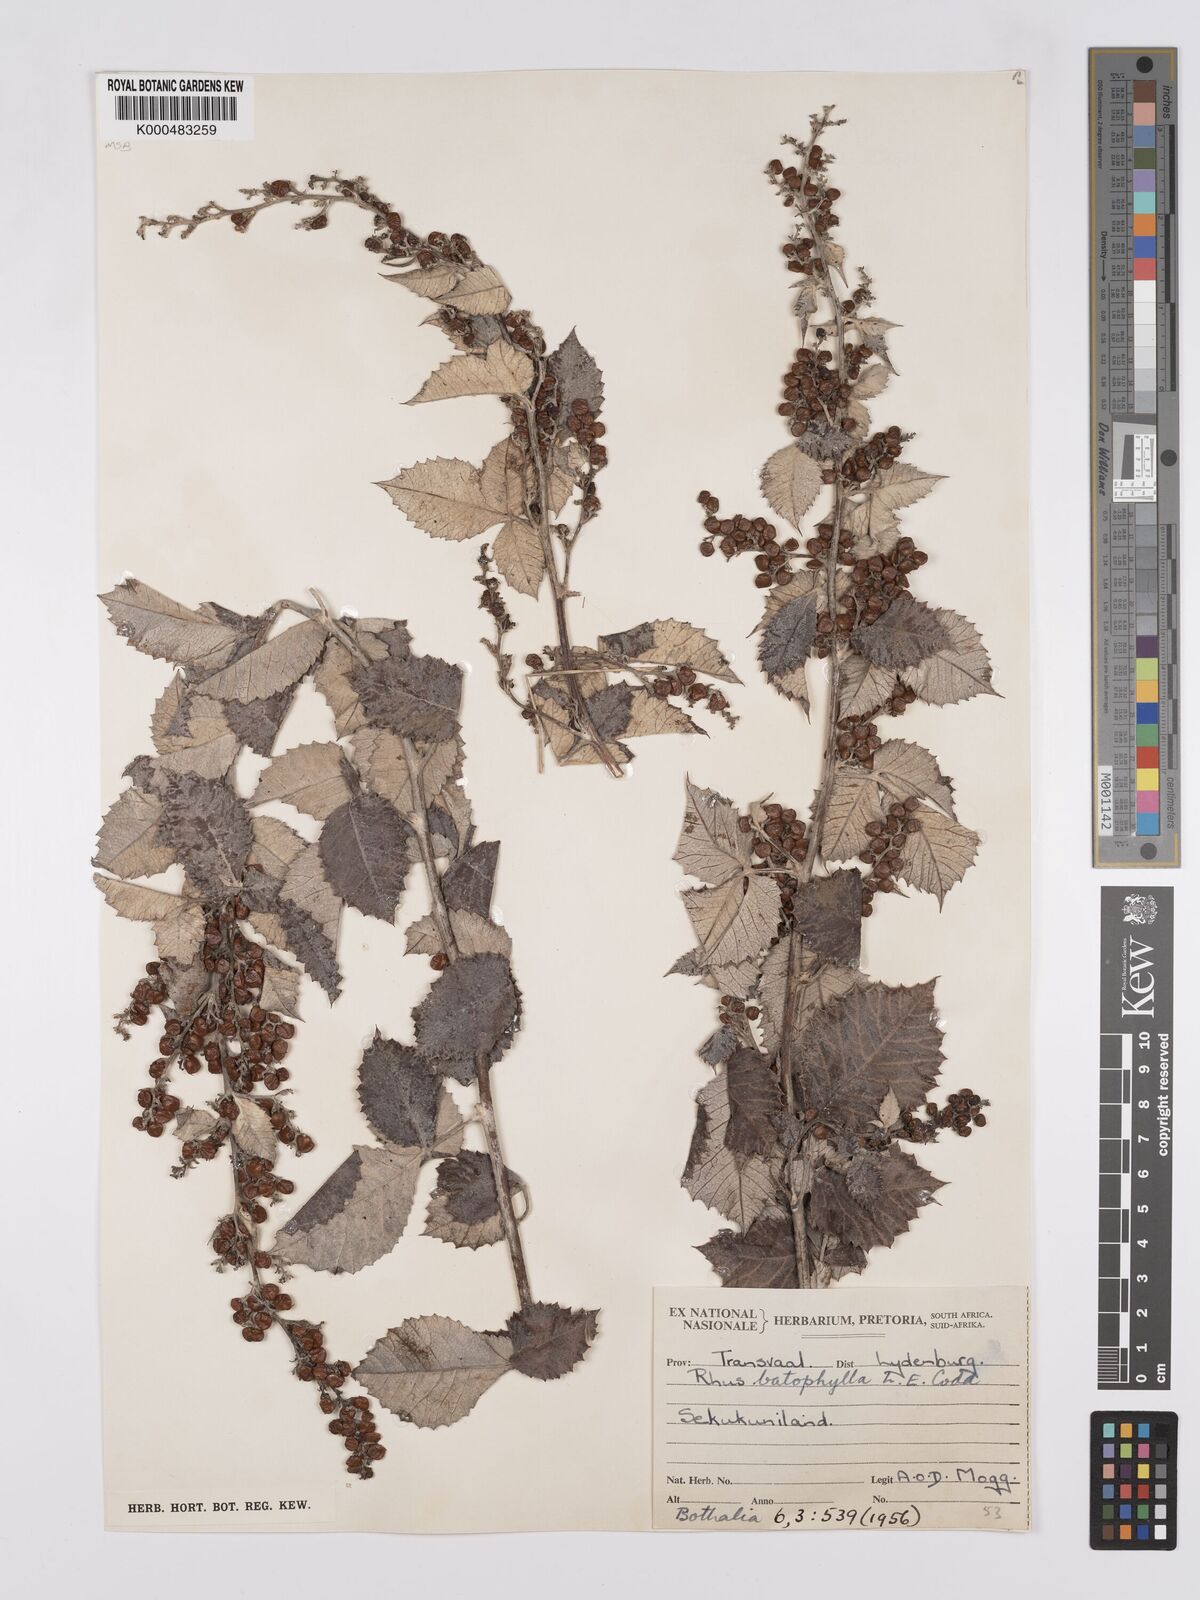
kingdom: Plantae
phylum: Tracheophyta
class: Magnoliopsida
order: Sapindales
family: Anacardiaceae
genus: Searsia
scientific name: Searsia batophylla
